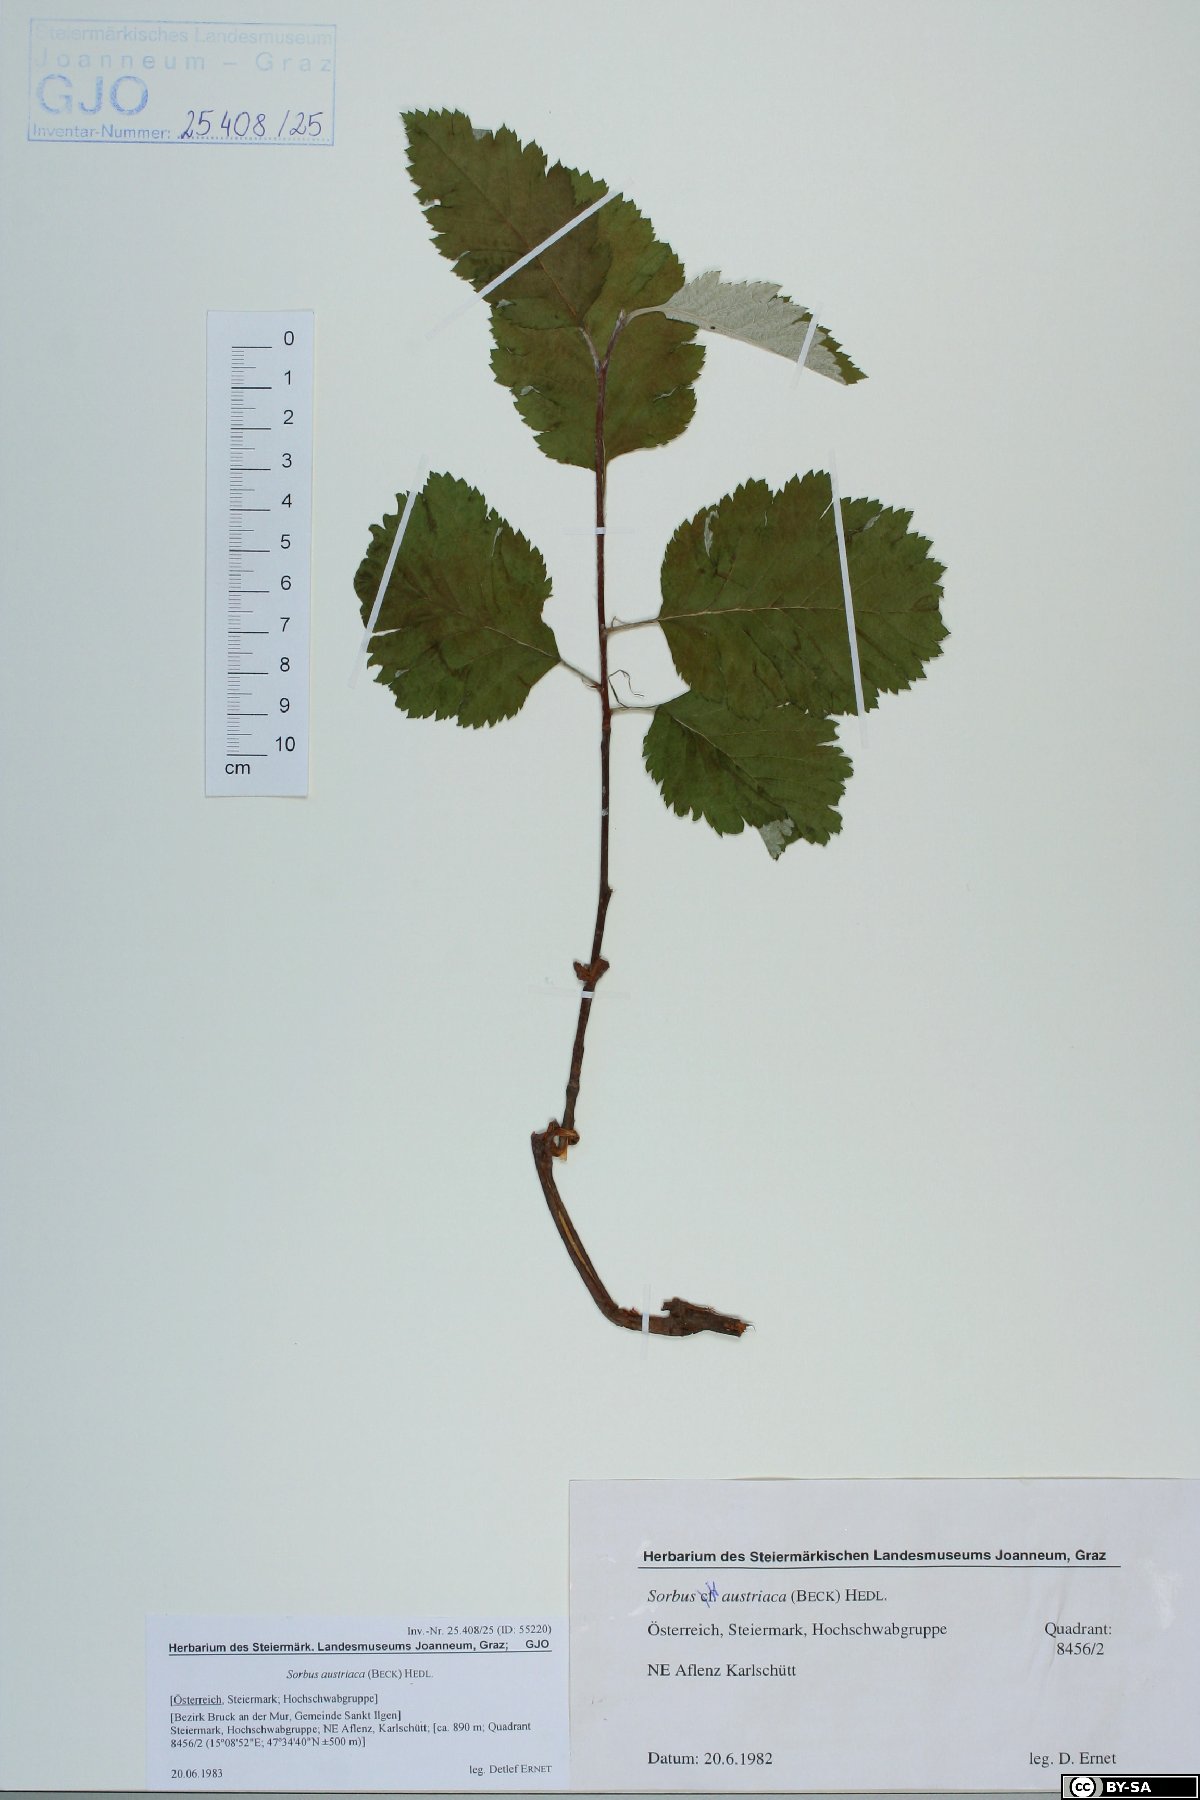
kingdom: Plantae
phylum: Tracheophyta
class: Magnoliopsida
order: Rosales
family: Rosaceae
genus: Hedlundia
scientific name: Hedlundia austriaca
